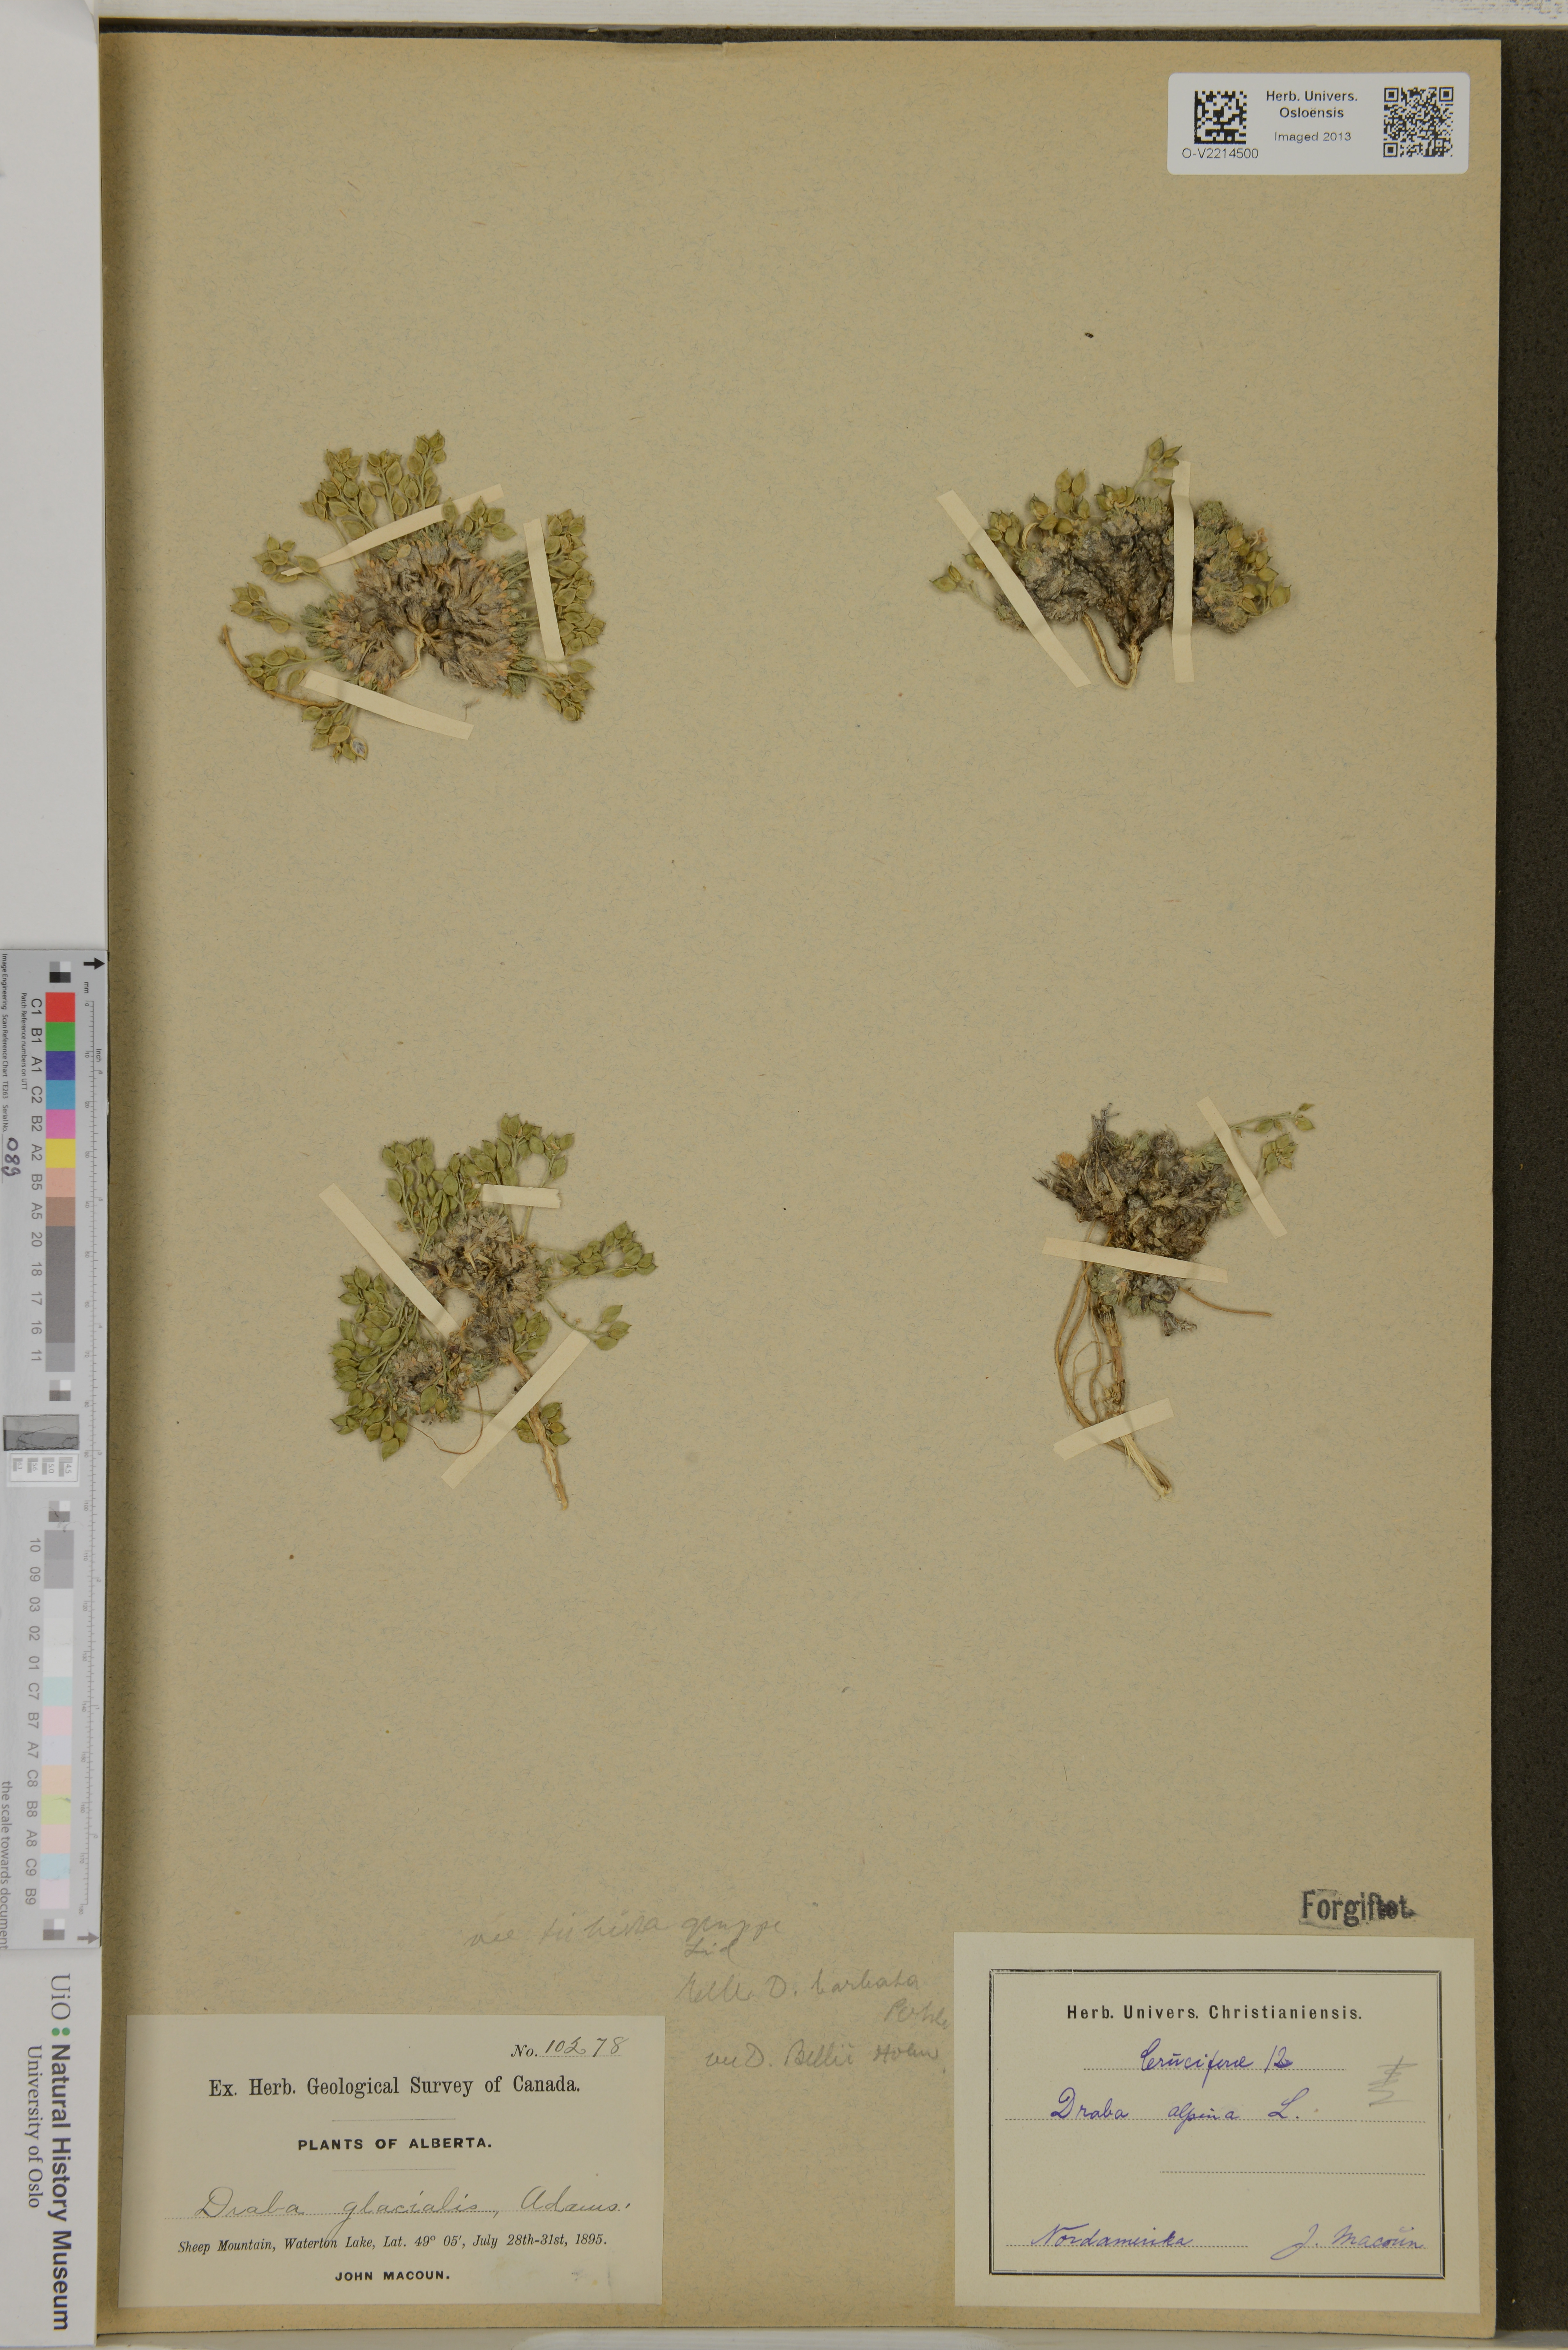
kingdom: Plantae
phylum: Tracheophyta
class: Magnoliopsida
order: Brassicales
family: Brassicaceae
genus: Draba
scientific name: Draba glacialis
